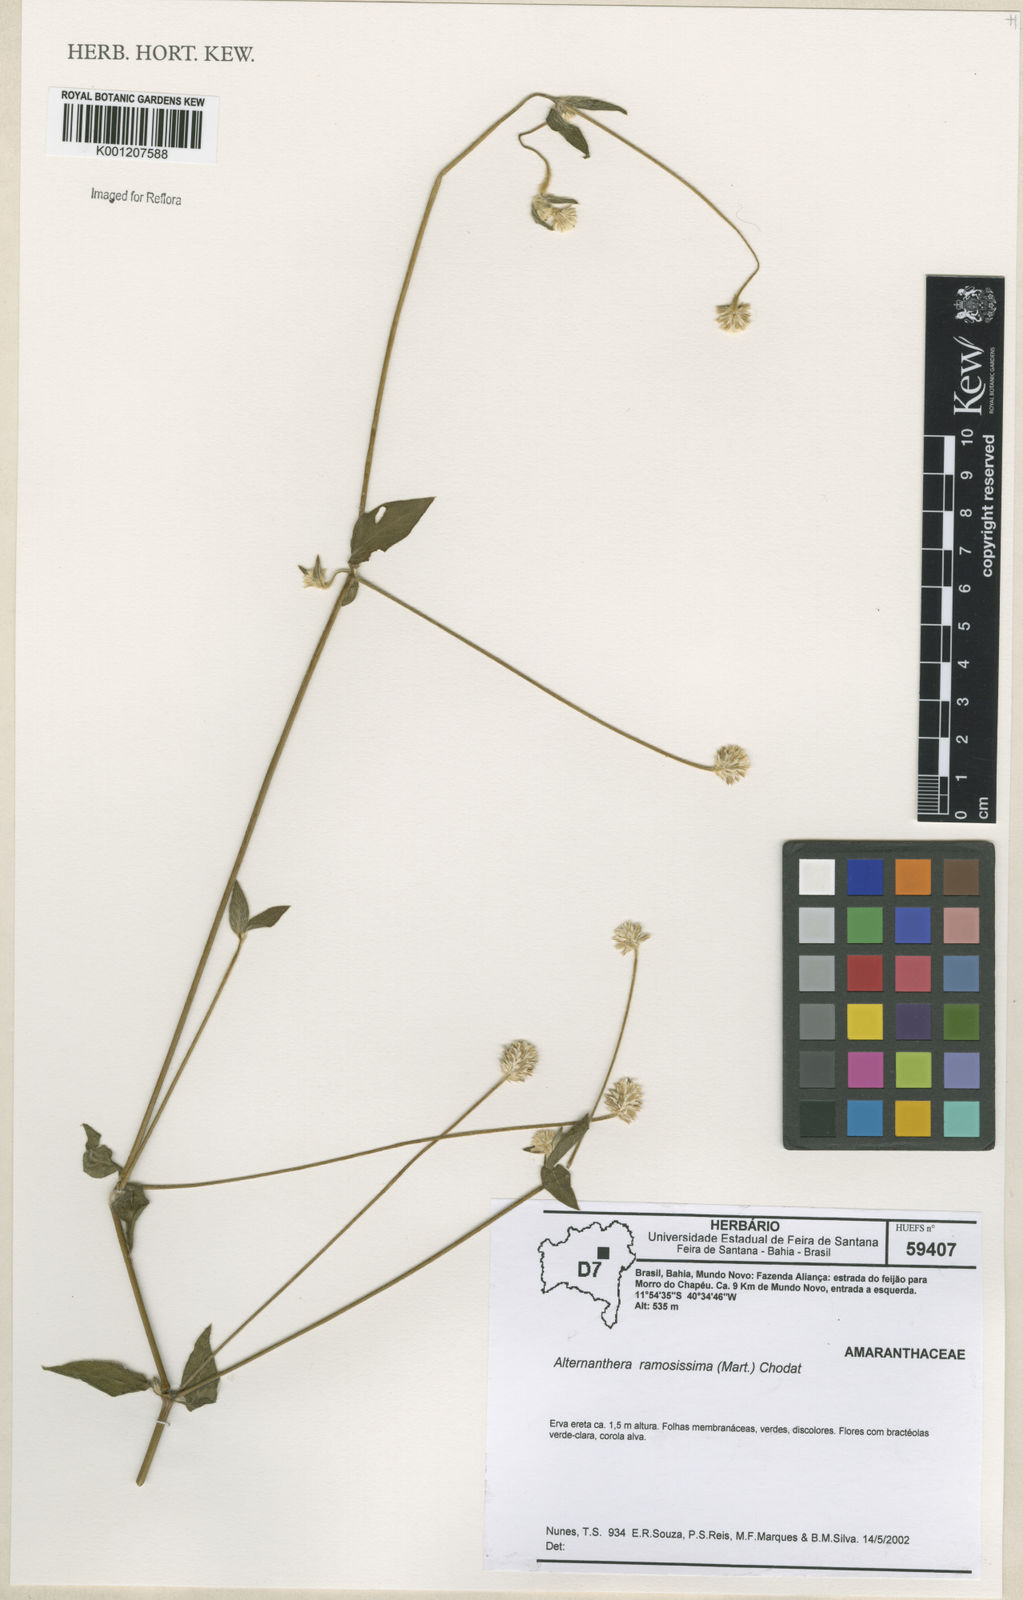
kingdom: Plantae
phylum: Tracheophyta
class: Magnoliopsida
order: Caryophyllales
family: Amaranthaceae
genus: Alternanthera
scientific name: Alternanthera ramosissima
